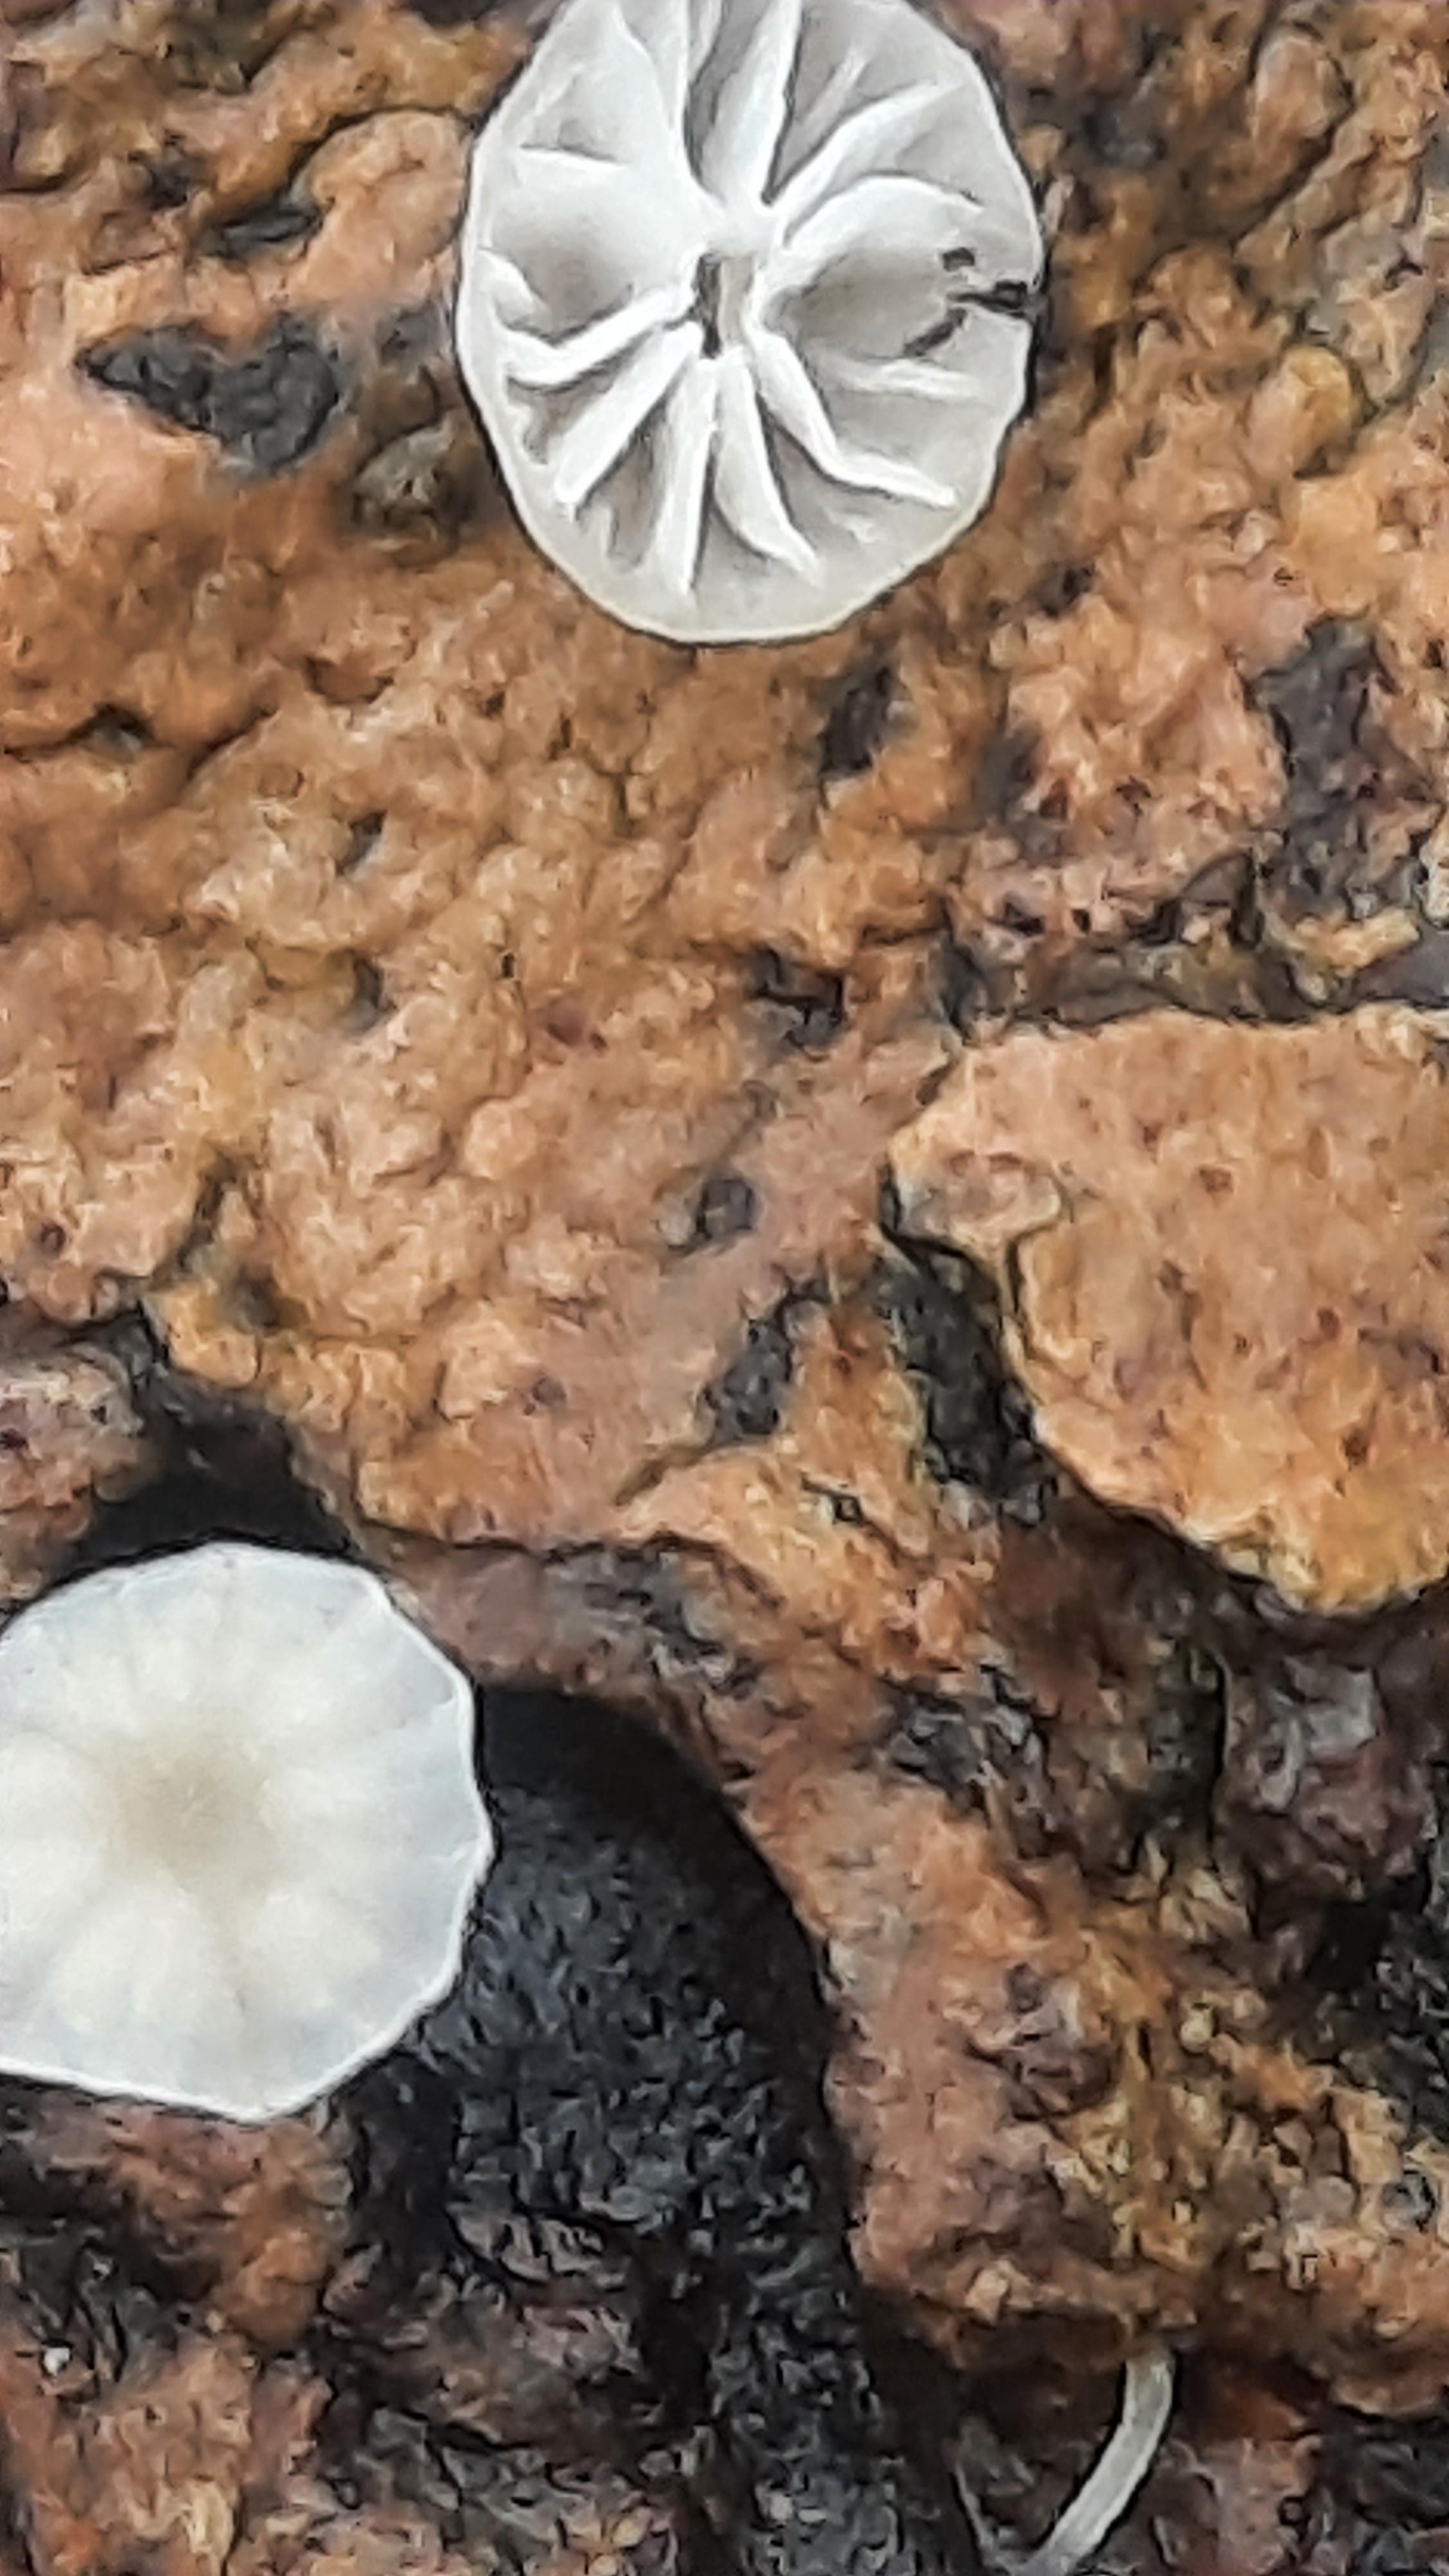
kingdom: Fungi
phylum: Basidiomycota
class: Agaricomycetes
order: Agaricales
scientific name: Agaricales
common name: champignonordenen
